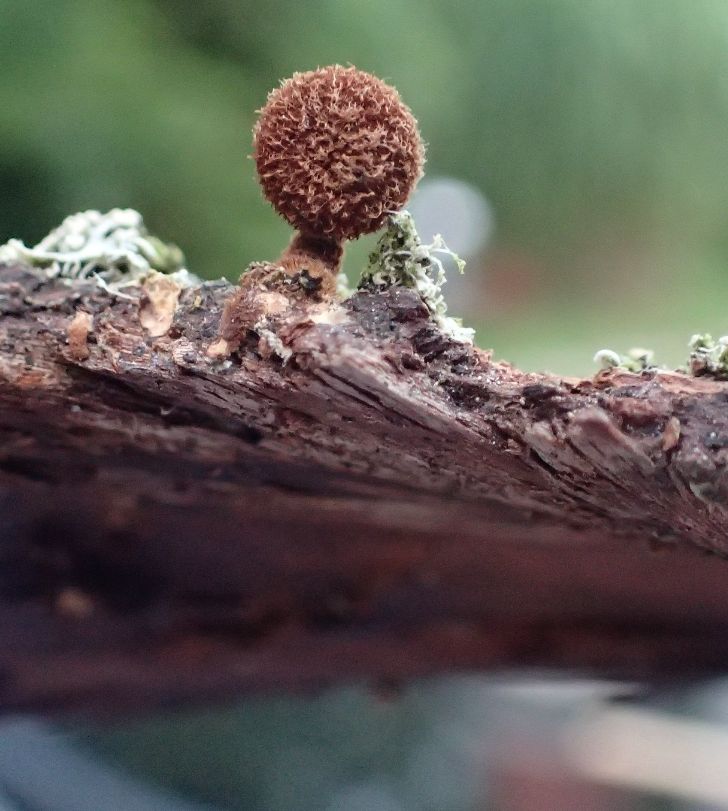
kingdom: Fungi
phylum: Basidiomycota
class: Agaricomycetes
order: Agaricales
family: Tubariaceae
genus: Phaeomarasmius
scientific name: Phaeomarasmius erinaceus
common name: spidsskælhat
